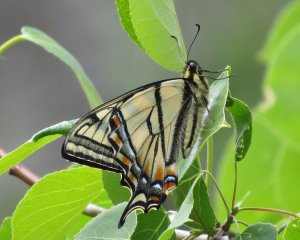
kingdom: Animalia
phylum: Arthropoda
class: Insecta
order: Lepidoptera
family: Papilionidae
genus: Pterourus
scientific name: Pterourus canadensis
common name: Canadian Tiger Swallowtail
